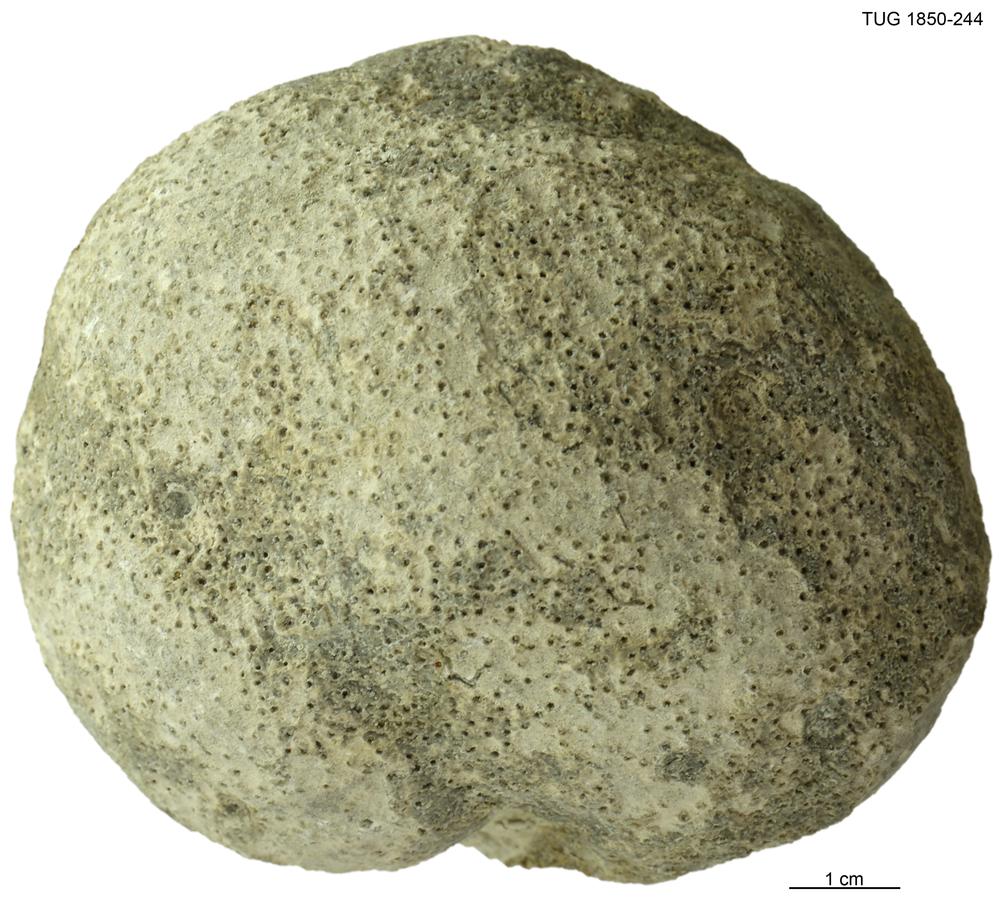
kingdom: Animalia
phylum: Cnidaria
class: Anthozoa
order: Heliolitina
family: Heliolitidae
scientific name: Heliolitidae
